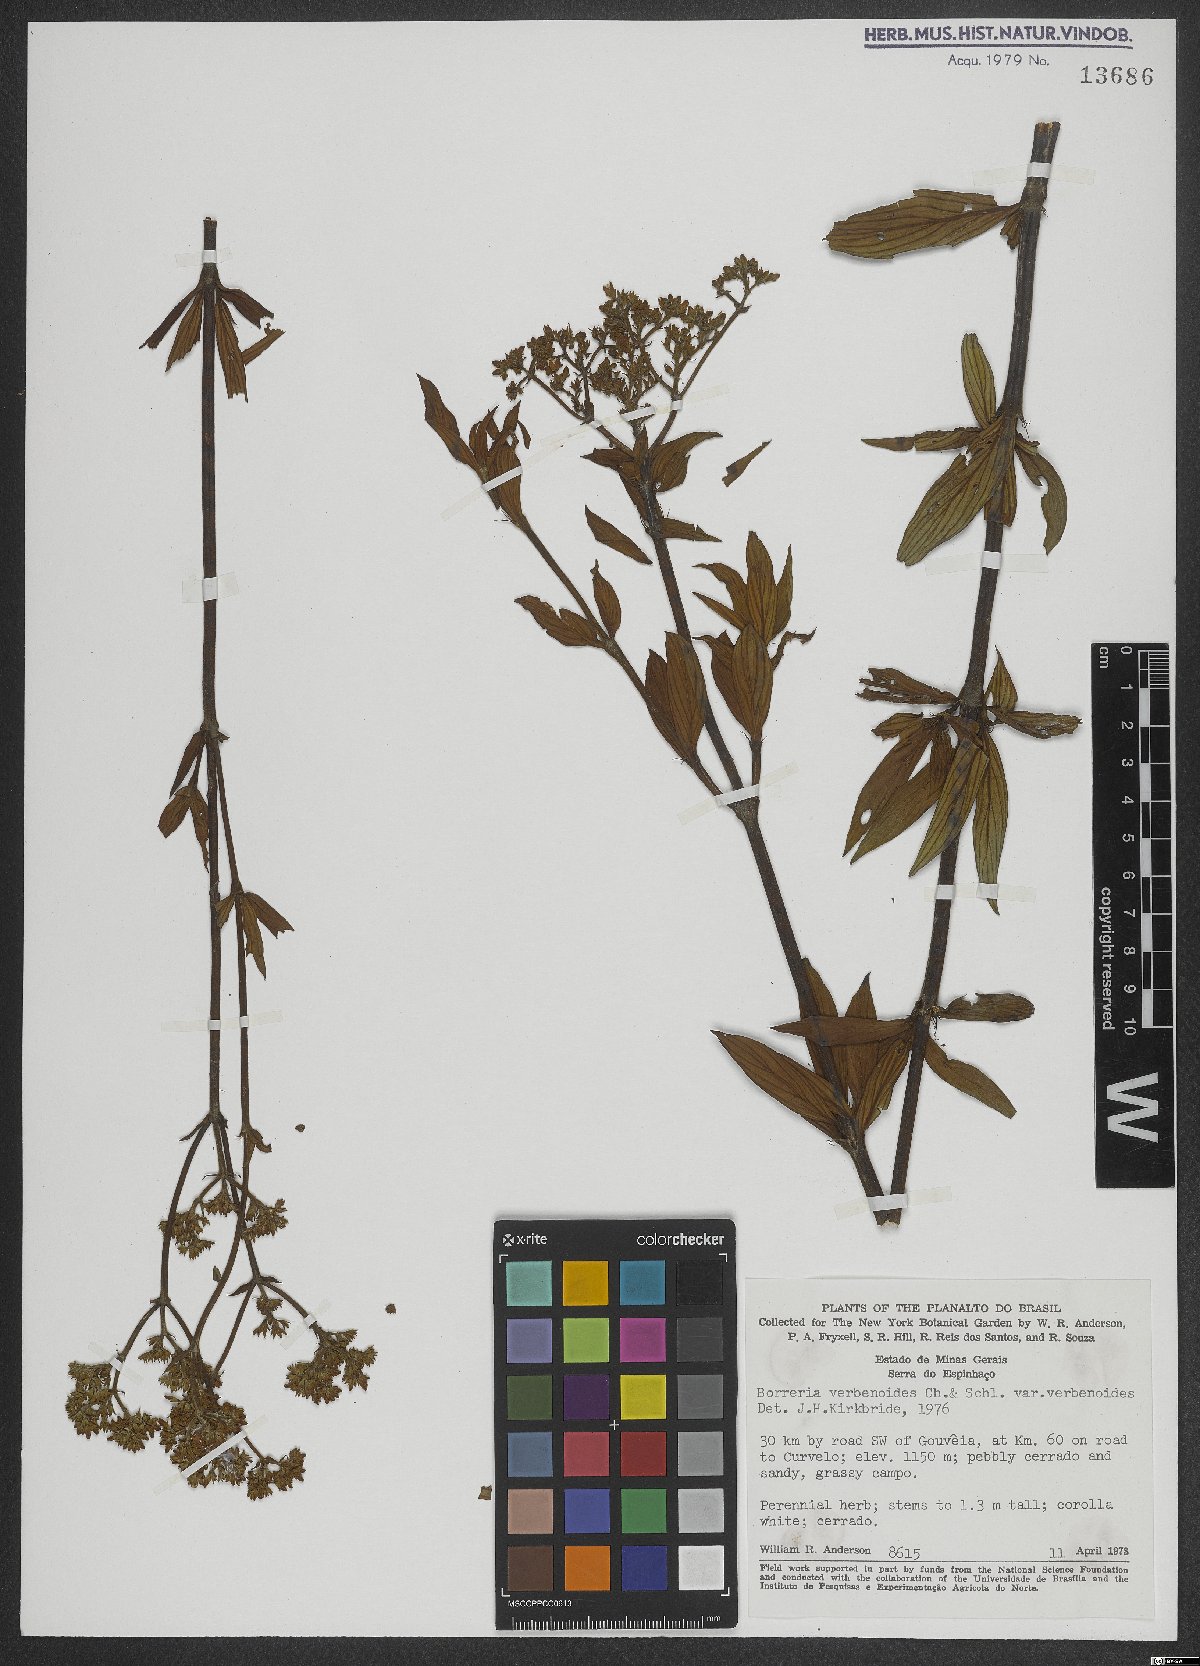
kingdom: Plantae
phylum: Tracheophyta
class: Magnoliopsida
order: Gentianales
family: Rubiaceae
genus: Spermacoce
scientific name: Spermacoce verbenoides
